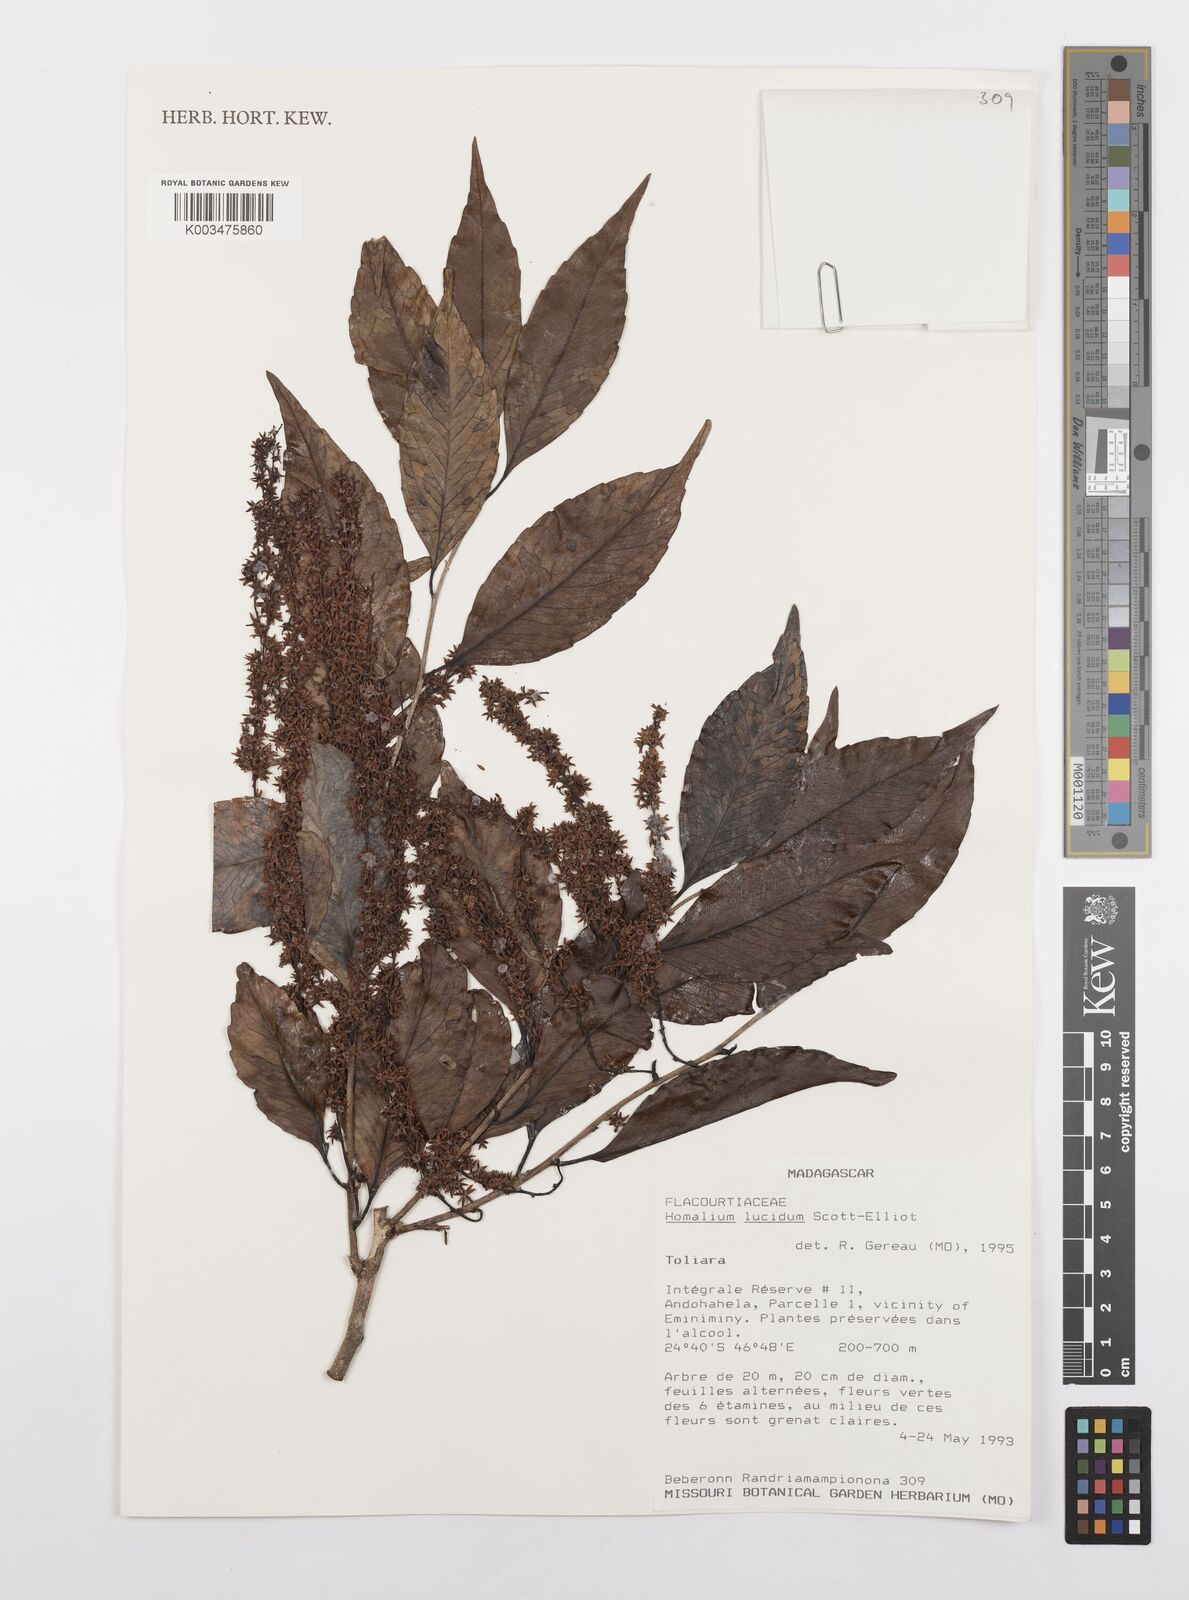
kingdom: Plantae
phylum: Tracheophyta
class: Magnoliopsida
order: Malpighiales
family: Salicaceae
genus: Homalium
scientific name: Homalium lucidum
